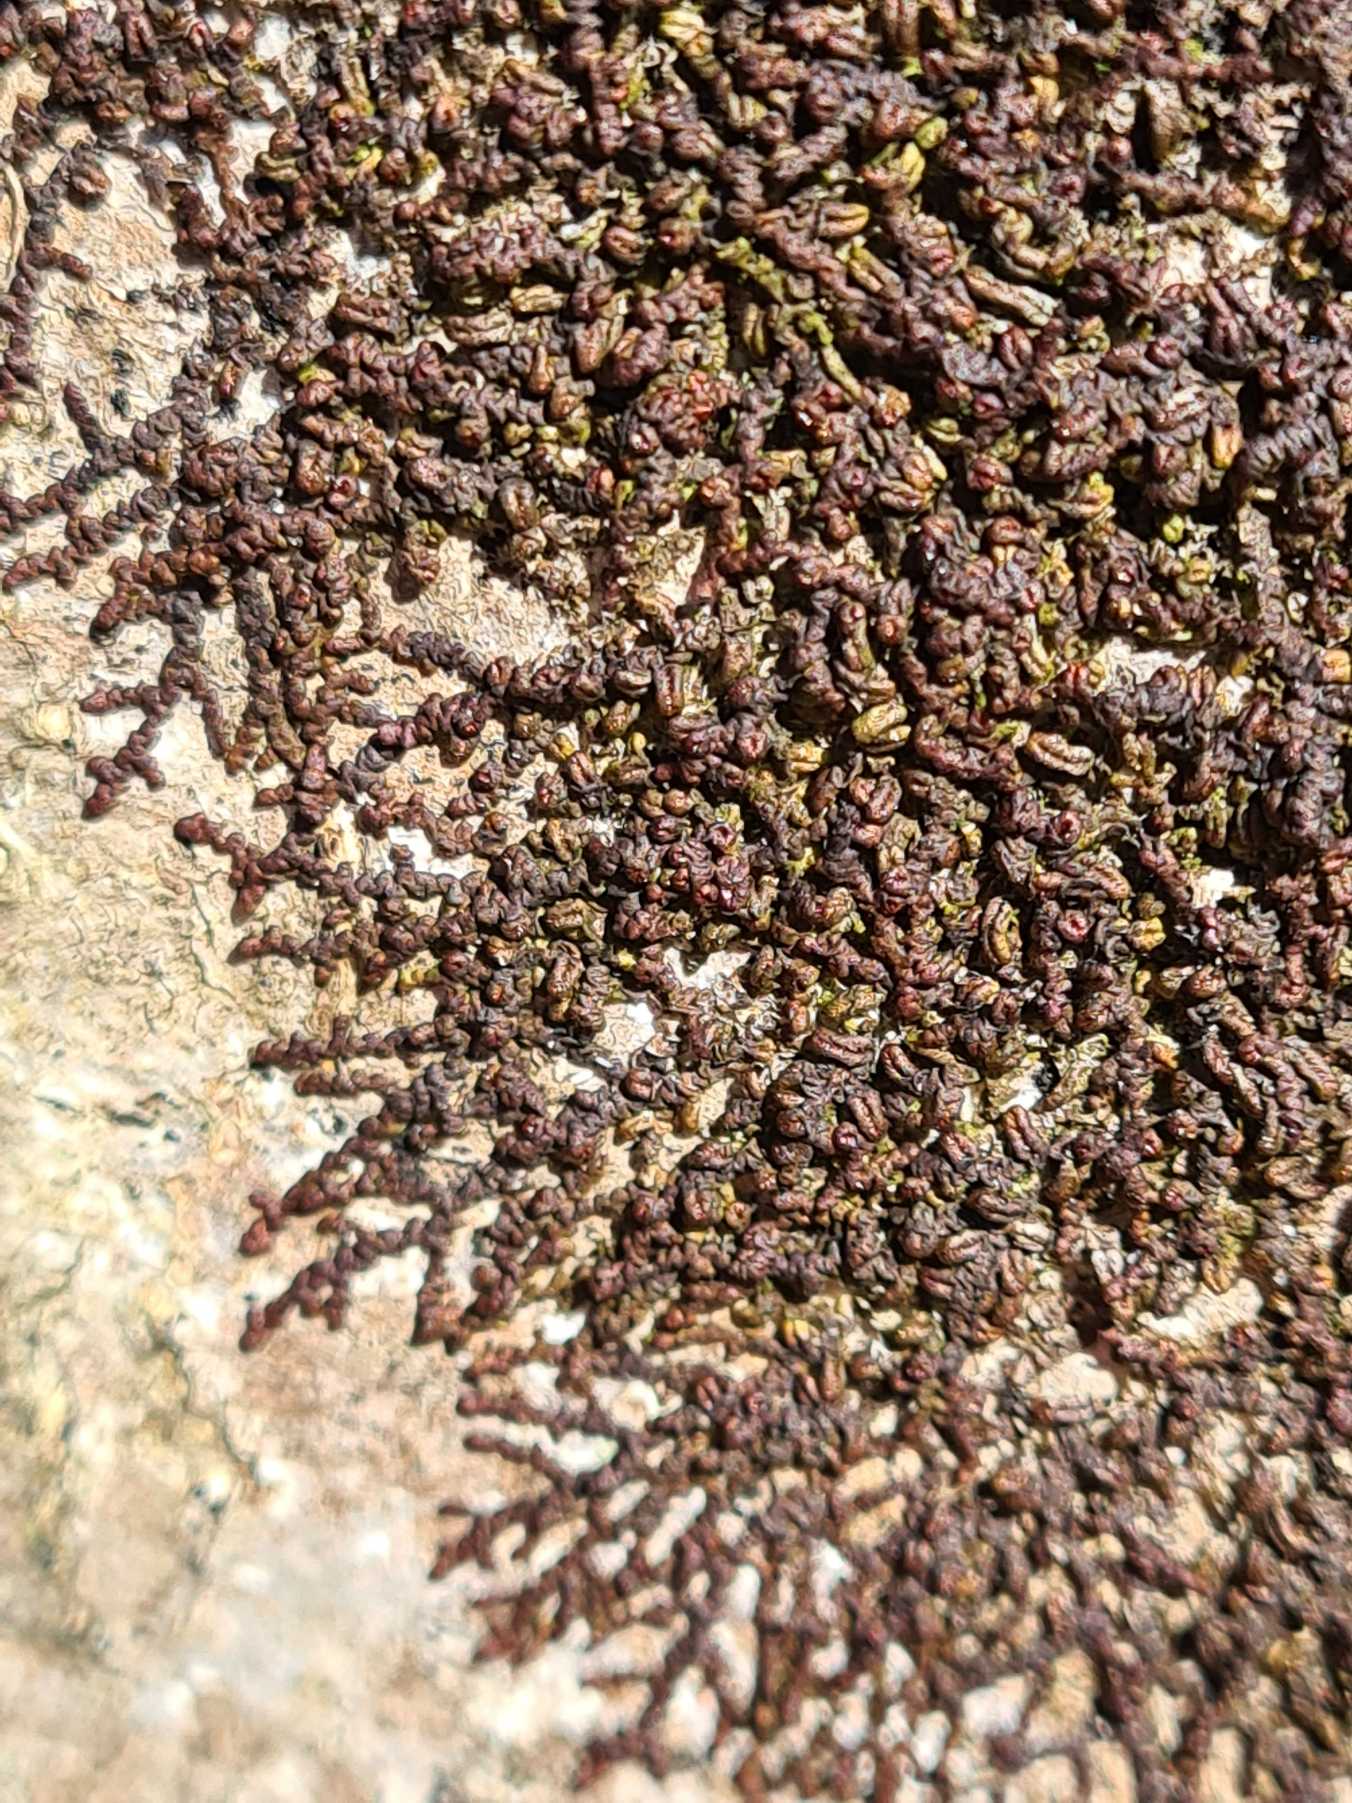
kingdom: Plantae
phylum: Marchantiophyta
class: Jungermanniopsida
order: Porellales
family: Frullaniaceae
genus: Frullania
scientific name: Frullania dilatata
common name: Mat bronzemos
